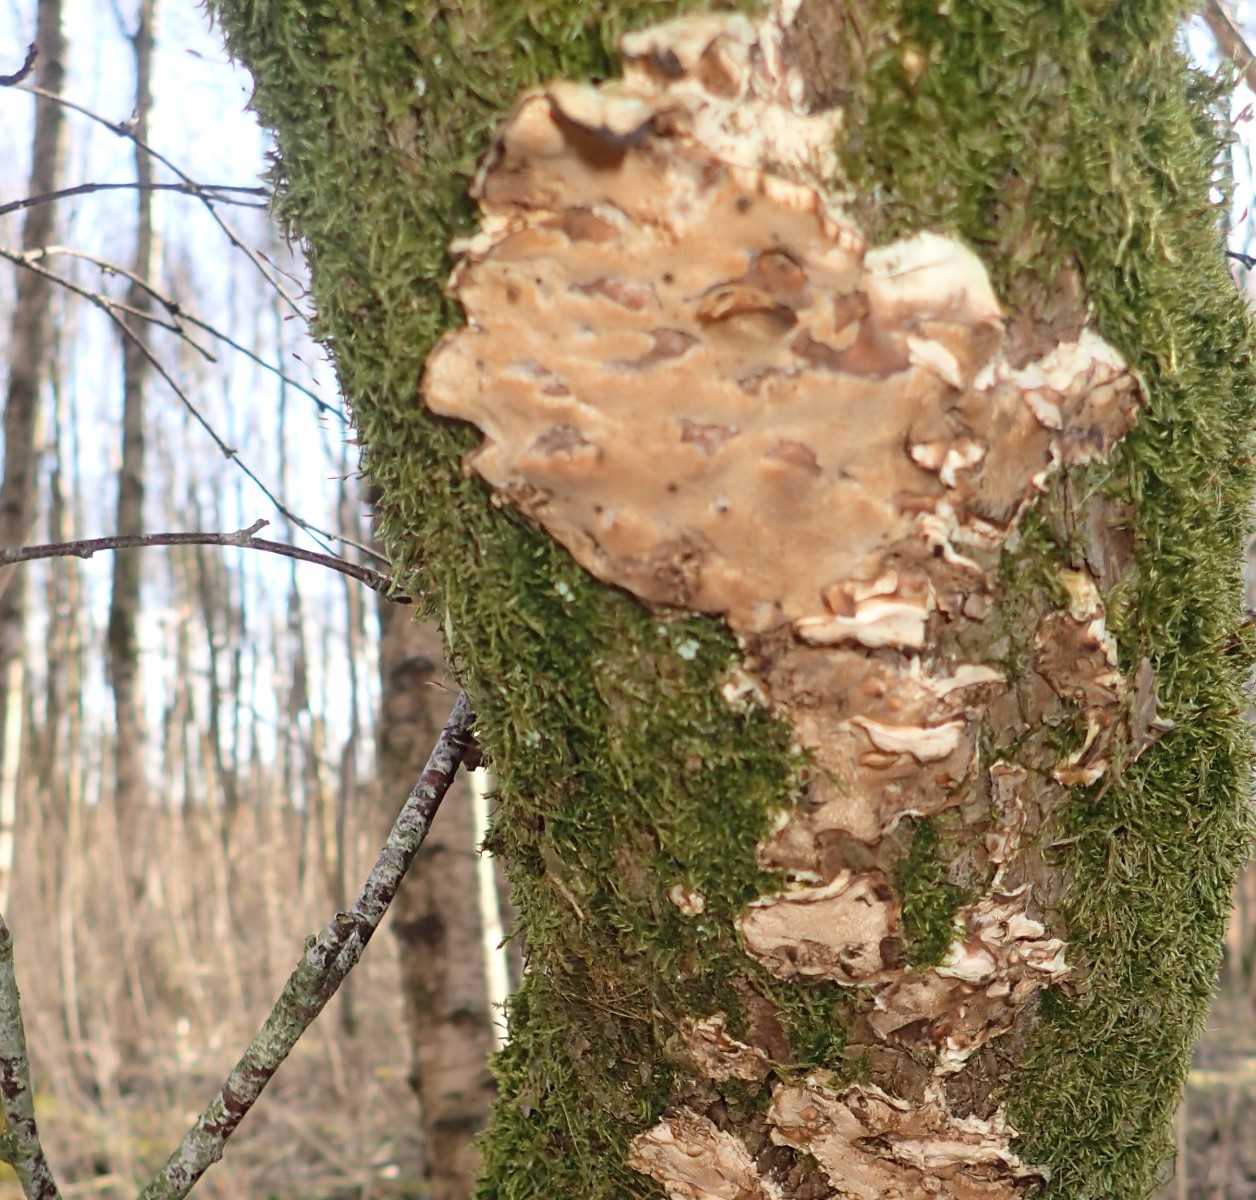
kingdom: Fungi
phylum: Basidiomycota
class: Agaricomycetes
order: Polyporales
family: Phanerochaetaceae
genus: Bjerkandera
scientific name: Bjerkandera fumosa
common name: grågul sodporesvamp
